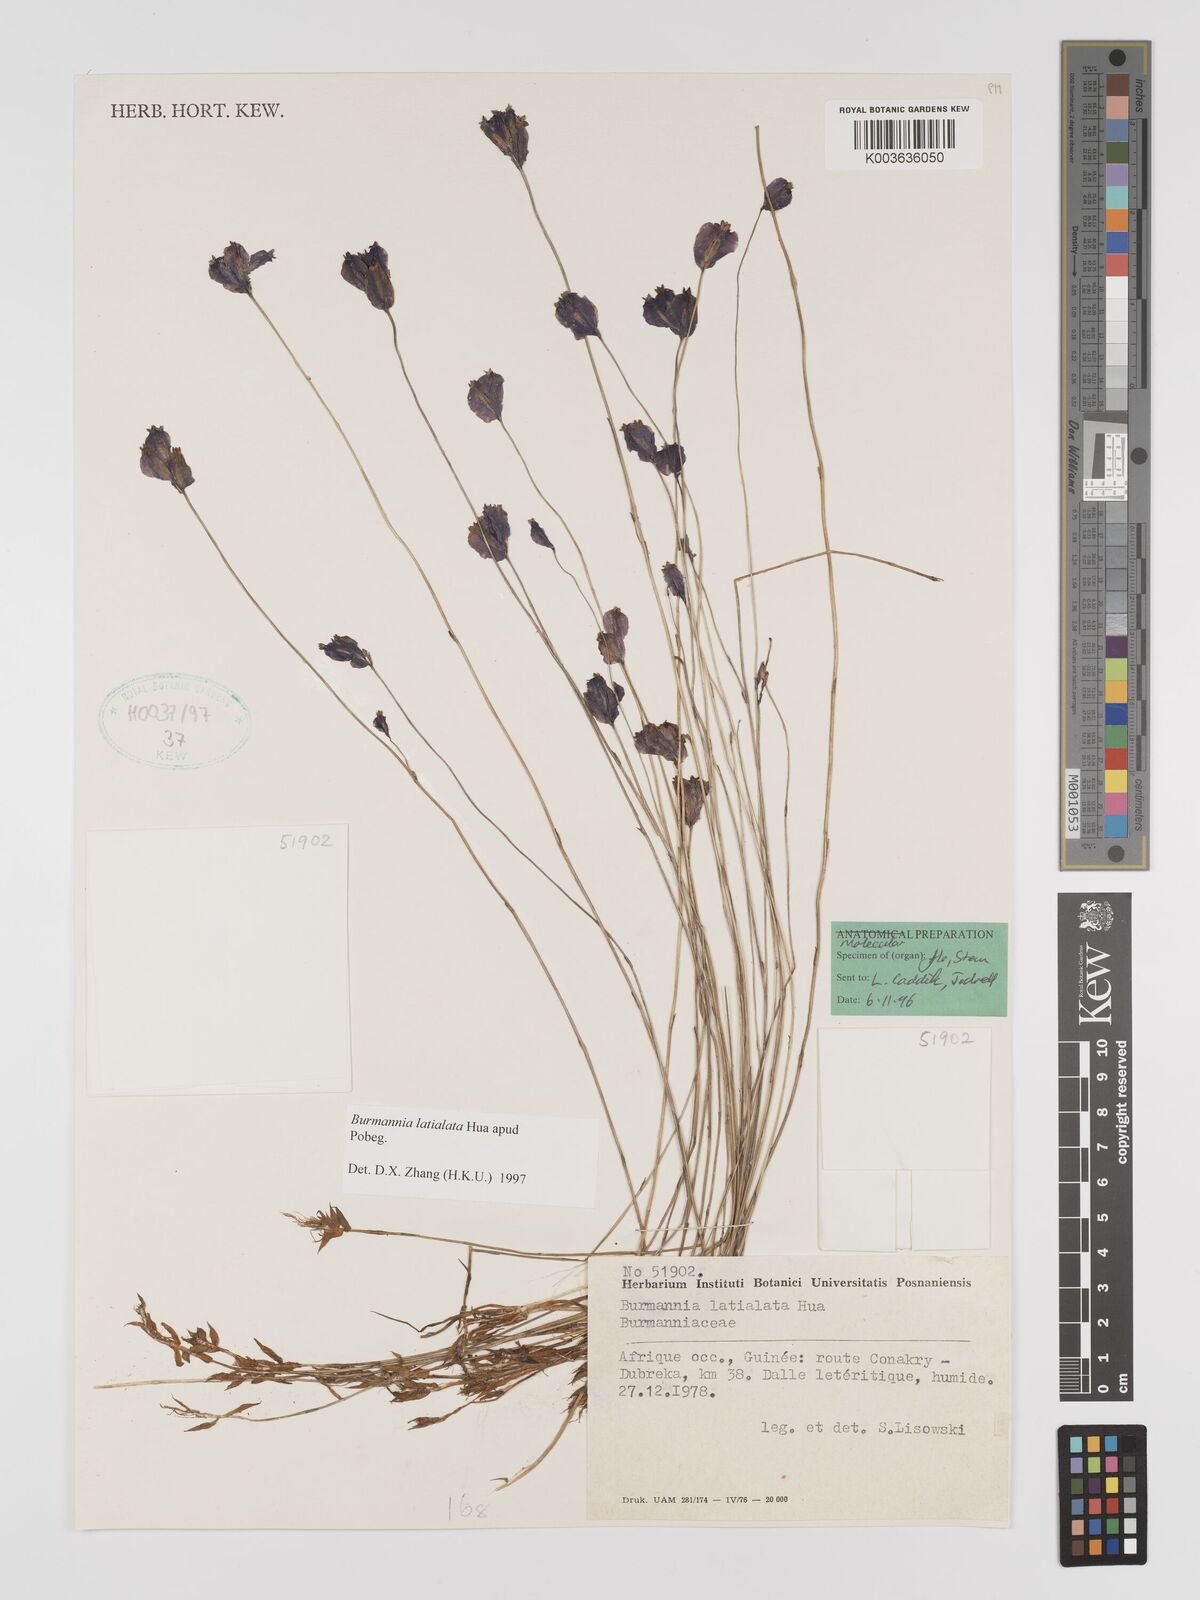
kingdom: Plantae
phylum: Tracheophyta
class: Liliopsida
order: Dioscoreales
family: Burmanniaceae
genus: Burmannia
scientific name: Burmannia madagascariensis
